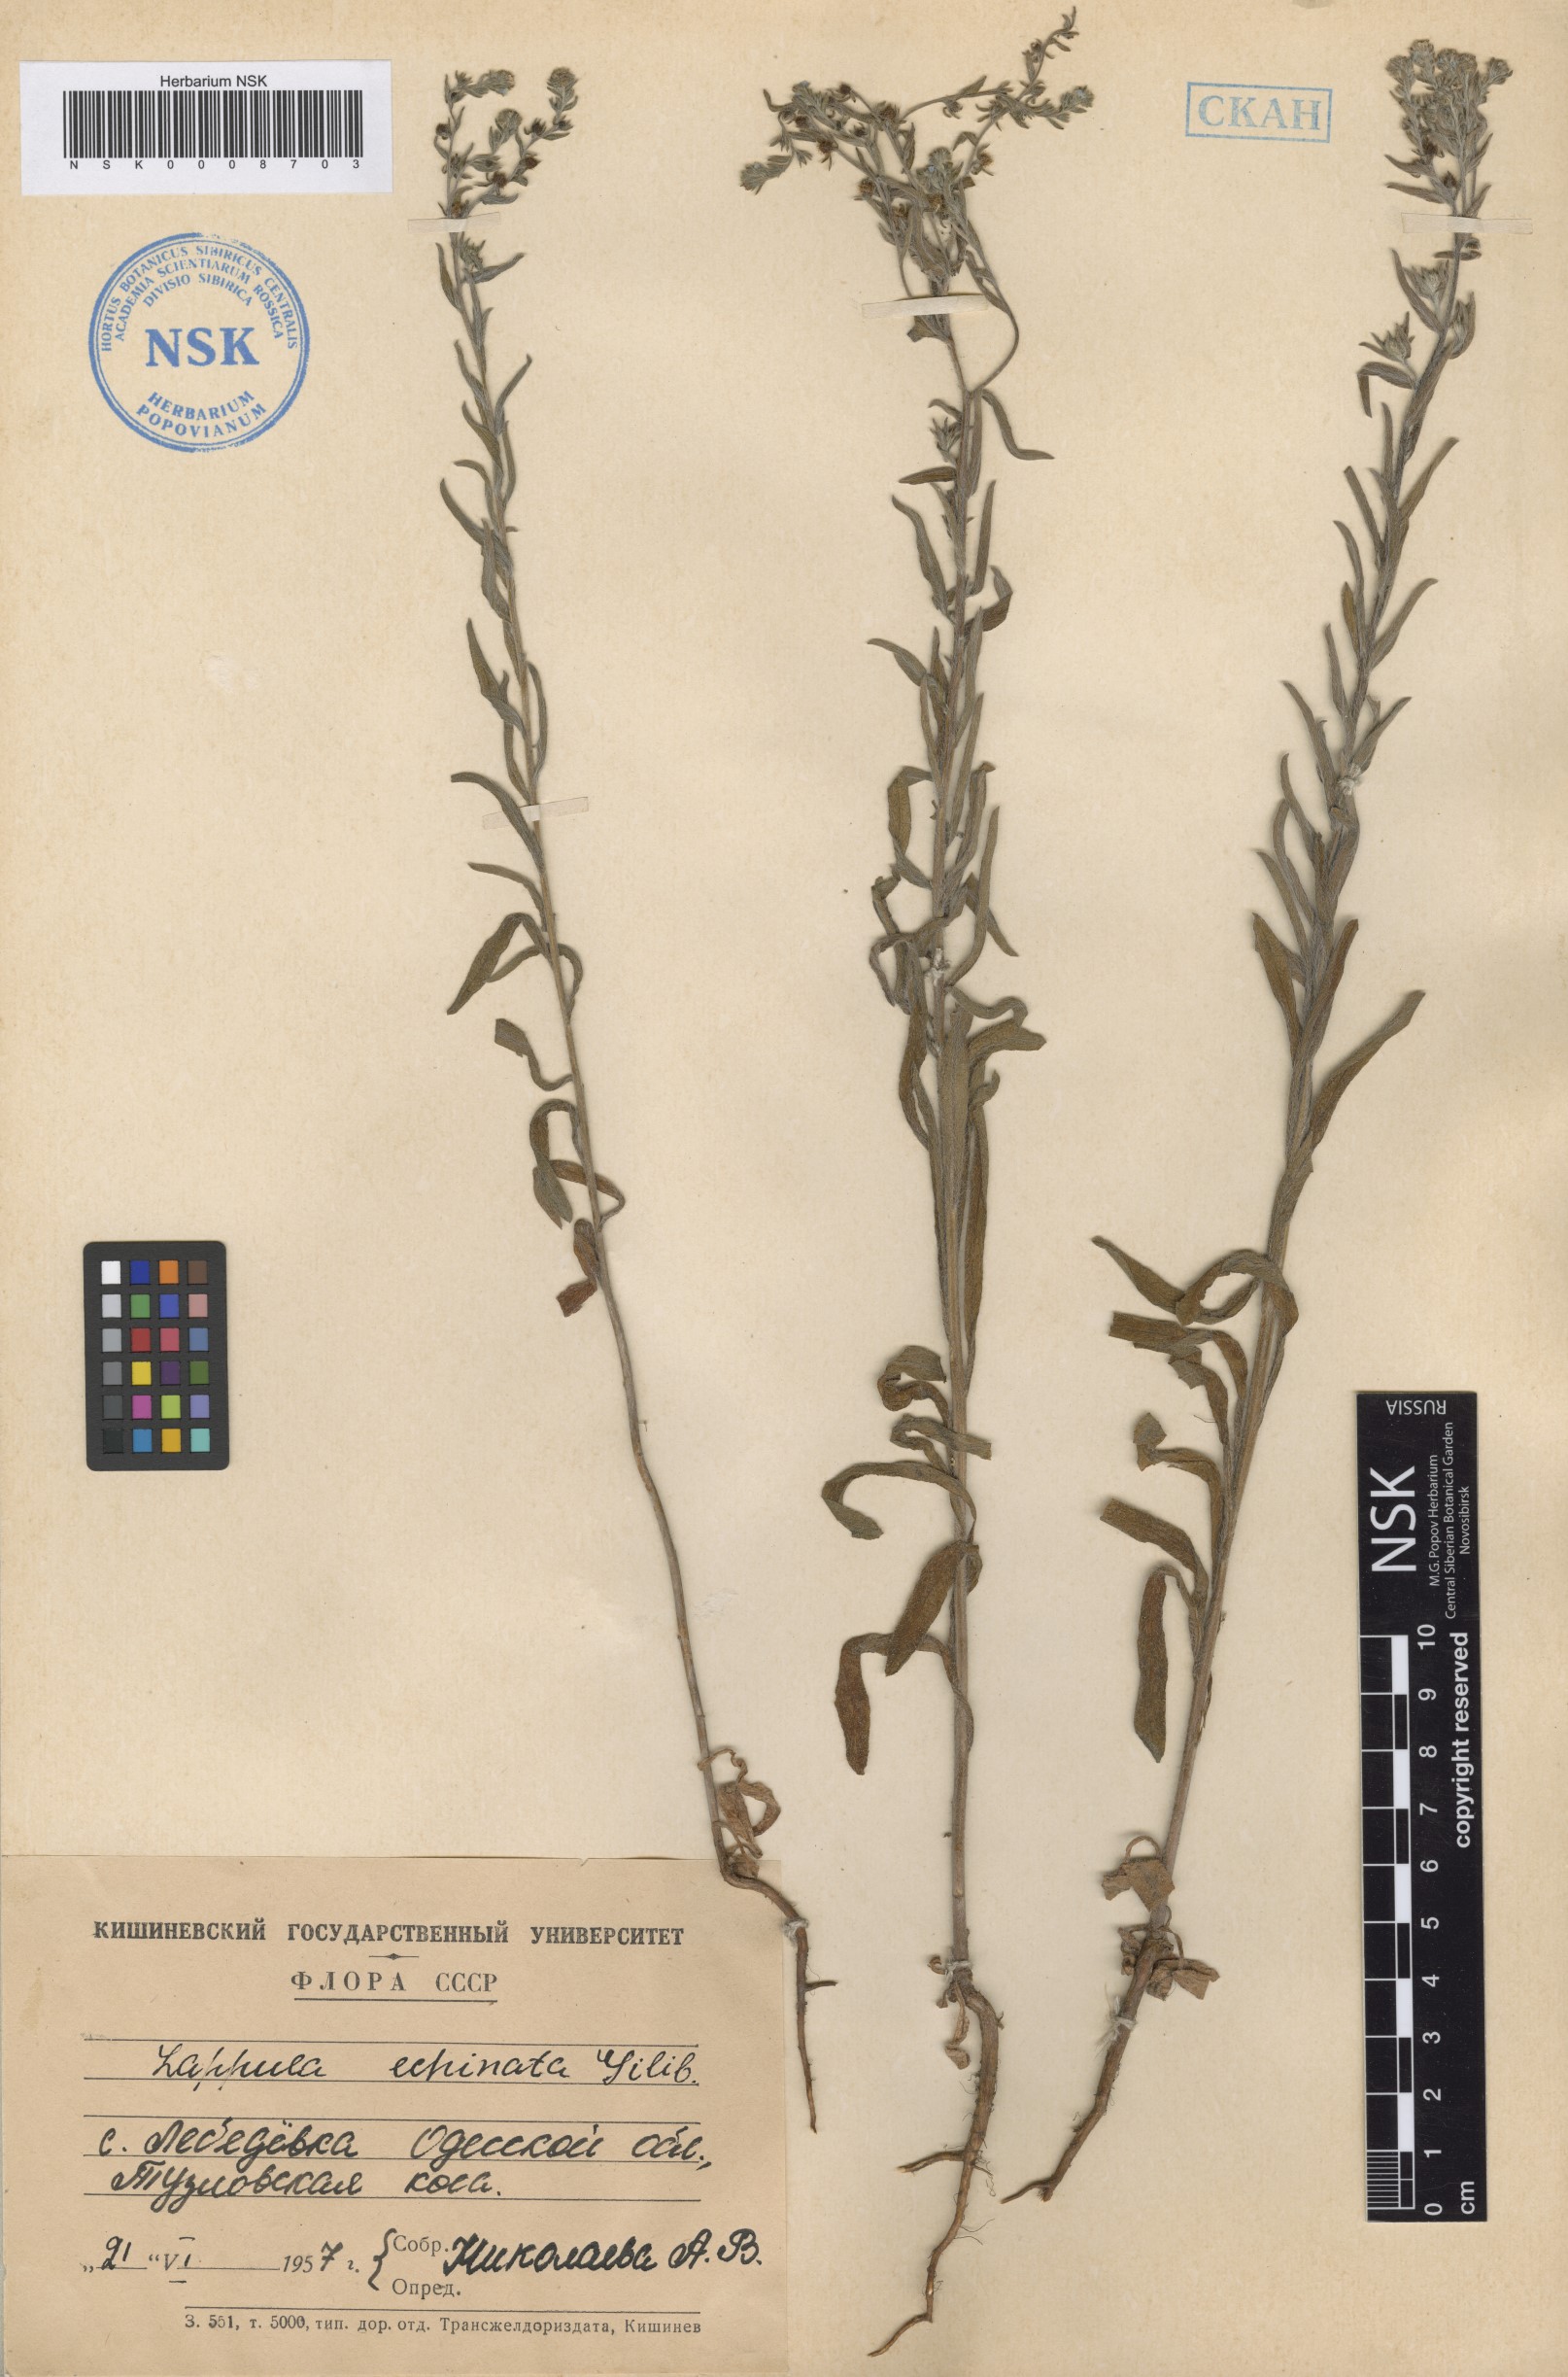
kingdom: Plantae
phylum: Tracheophyta
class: Magnoliopsida
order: Boraginales
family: Boraginaceae
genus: Lappula
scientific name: Lappula squarrosa
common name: European stickseed
